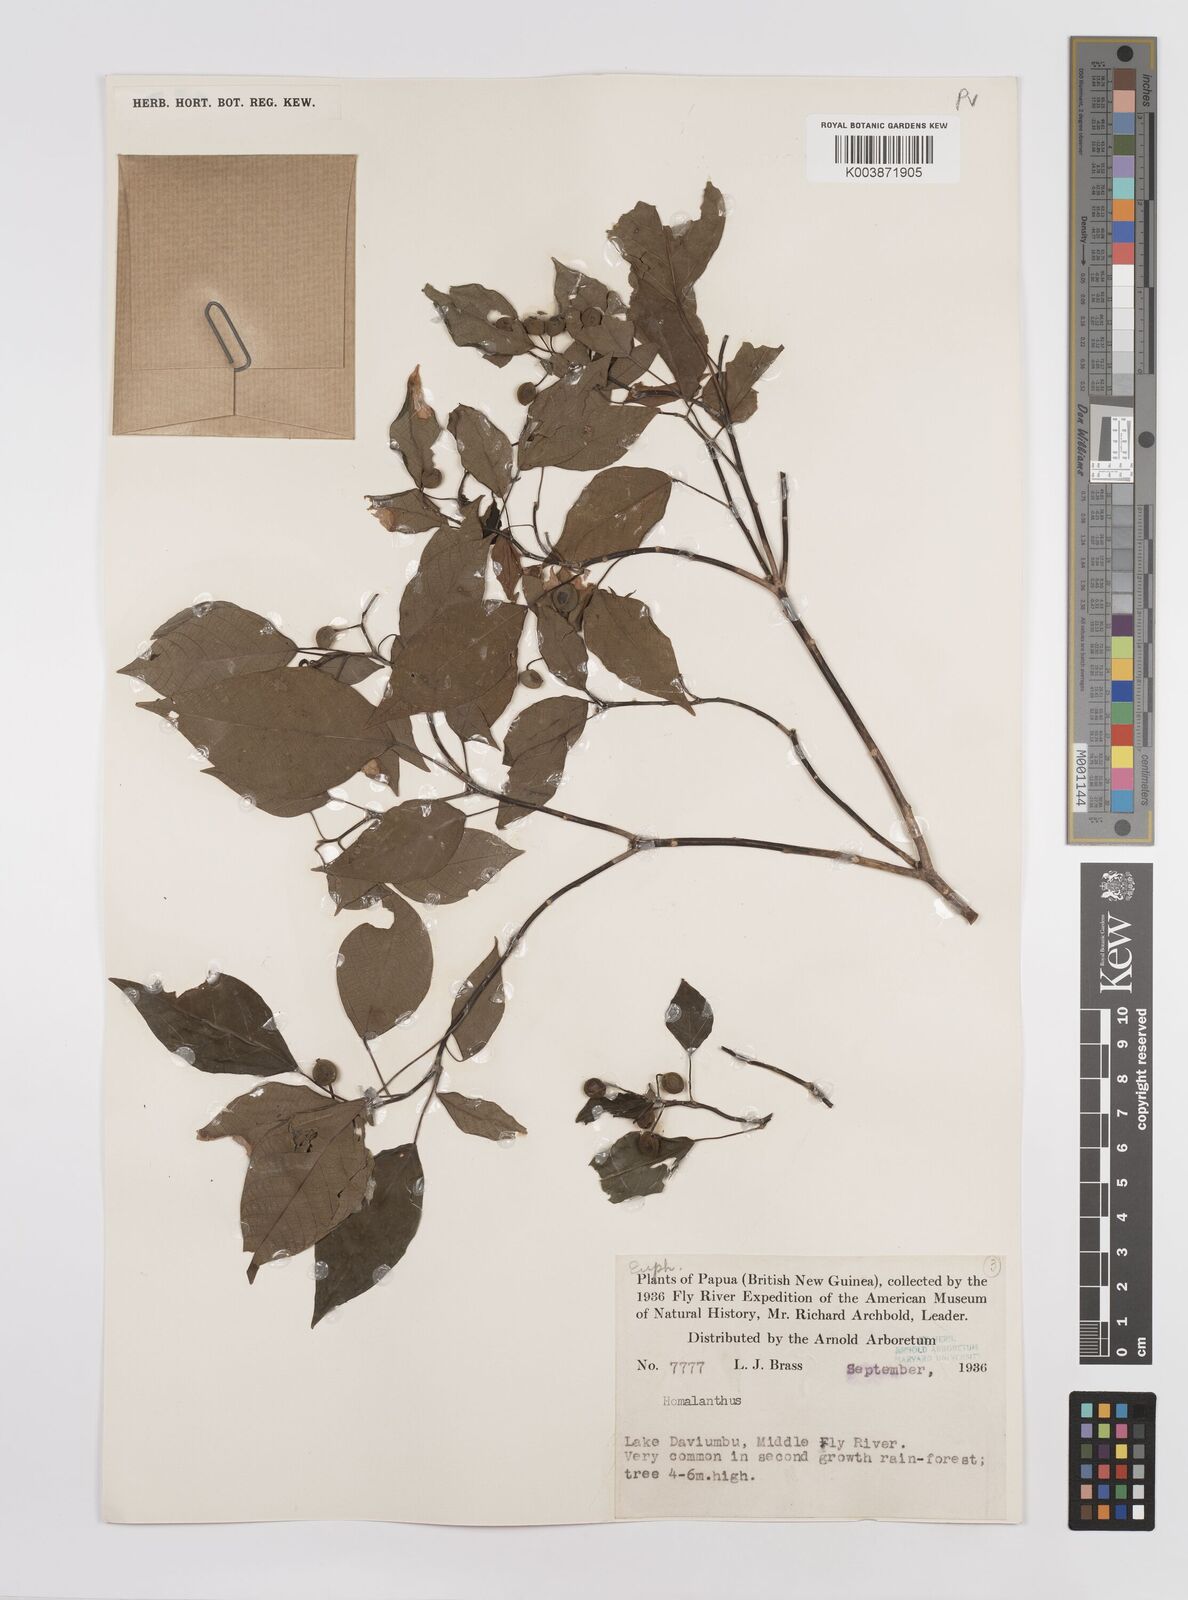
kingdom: Plantae
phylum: Tracheophyta
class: Magnoliopsida
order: Malpighiales
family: Euphorbiaceae
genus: Homalanthus
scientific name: Homalanthus novoguineensis
